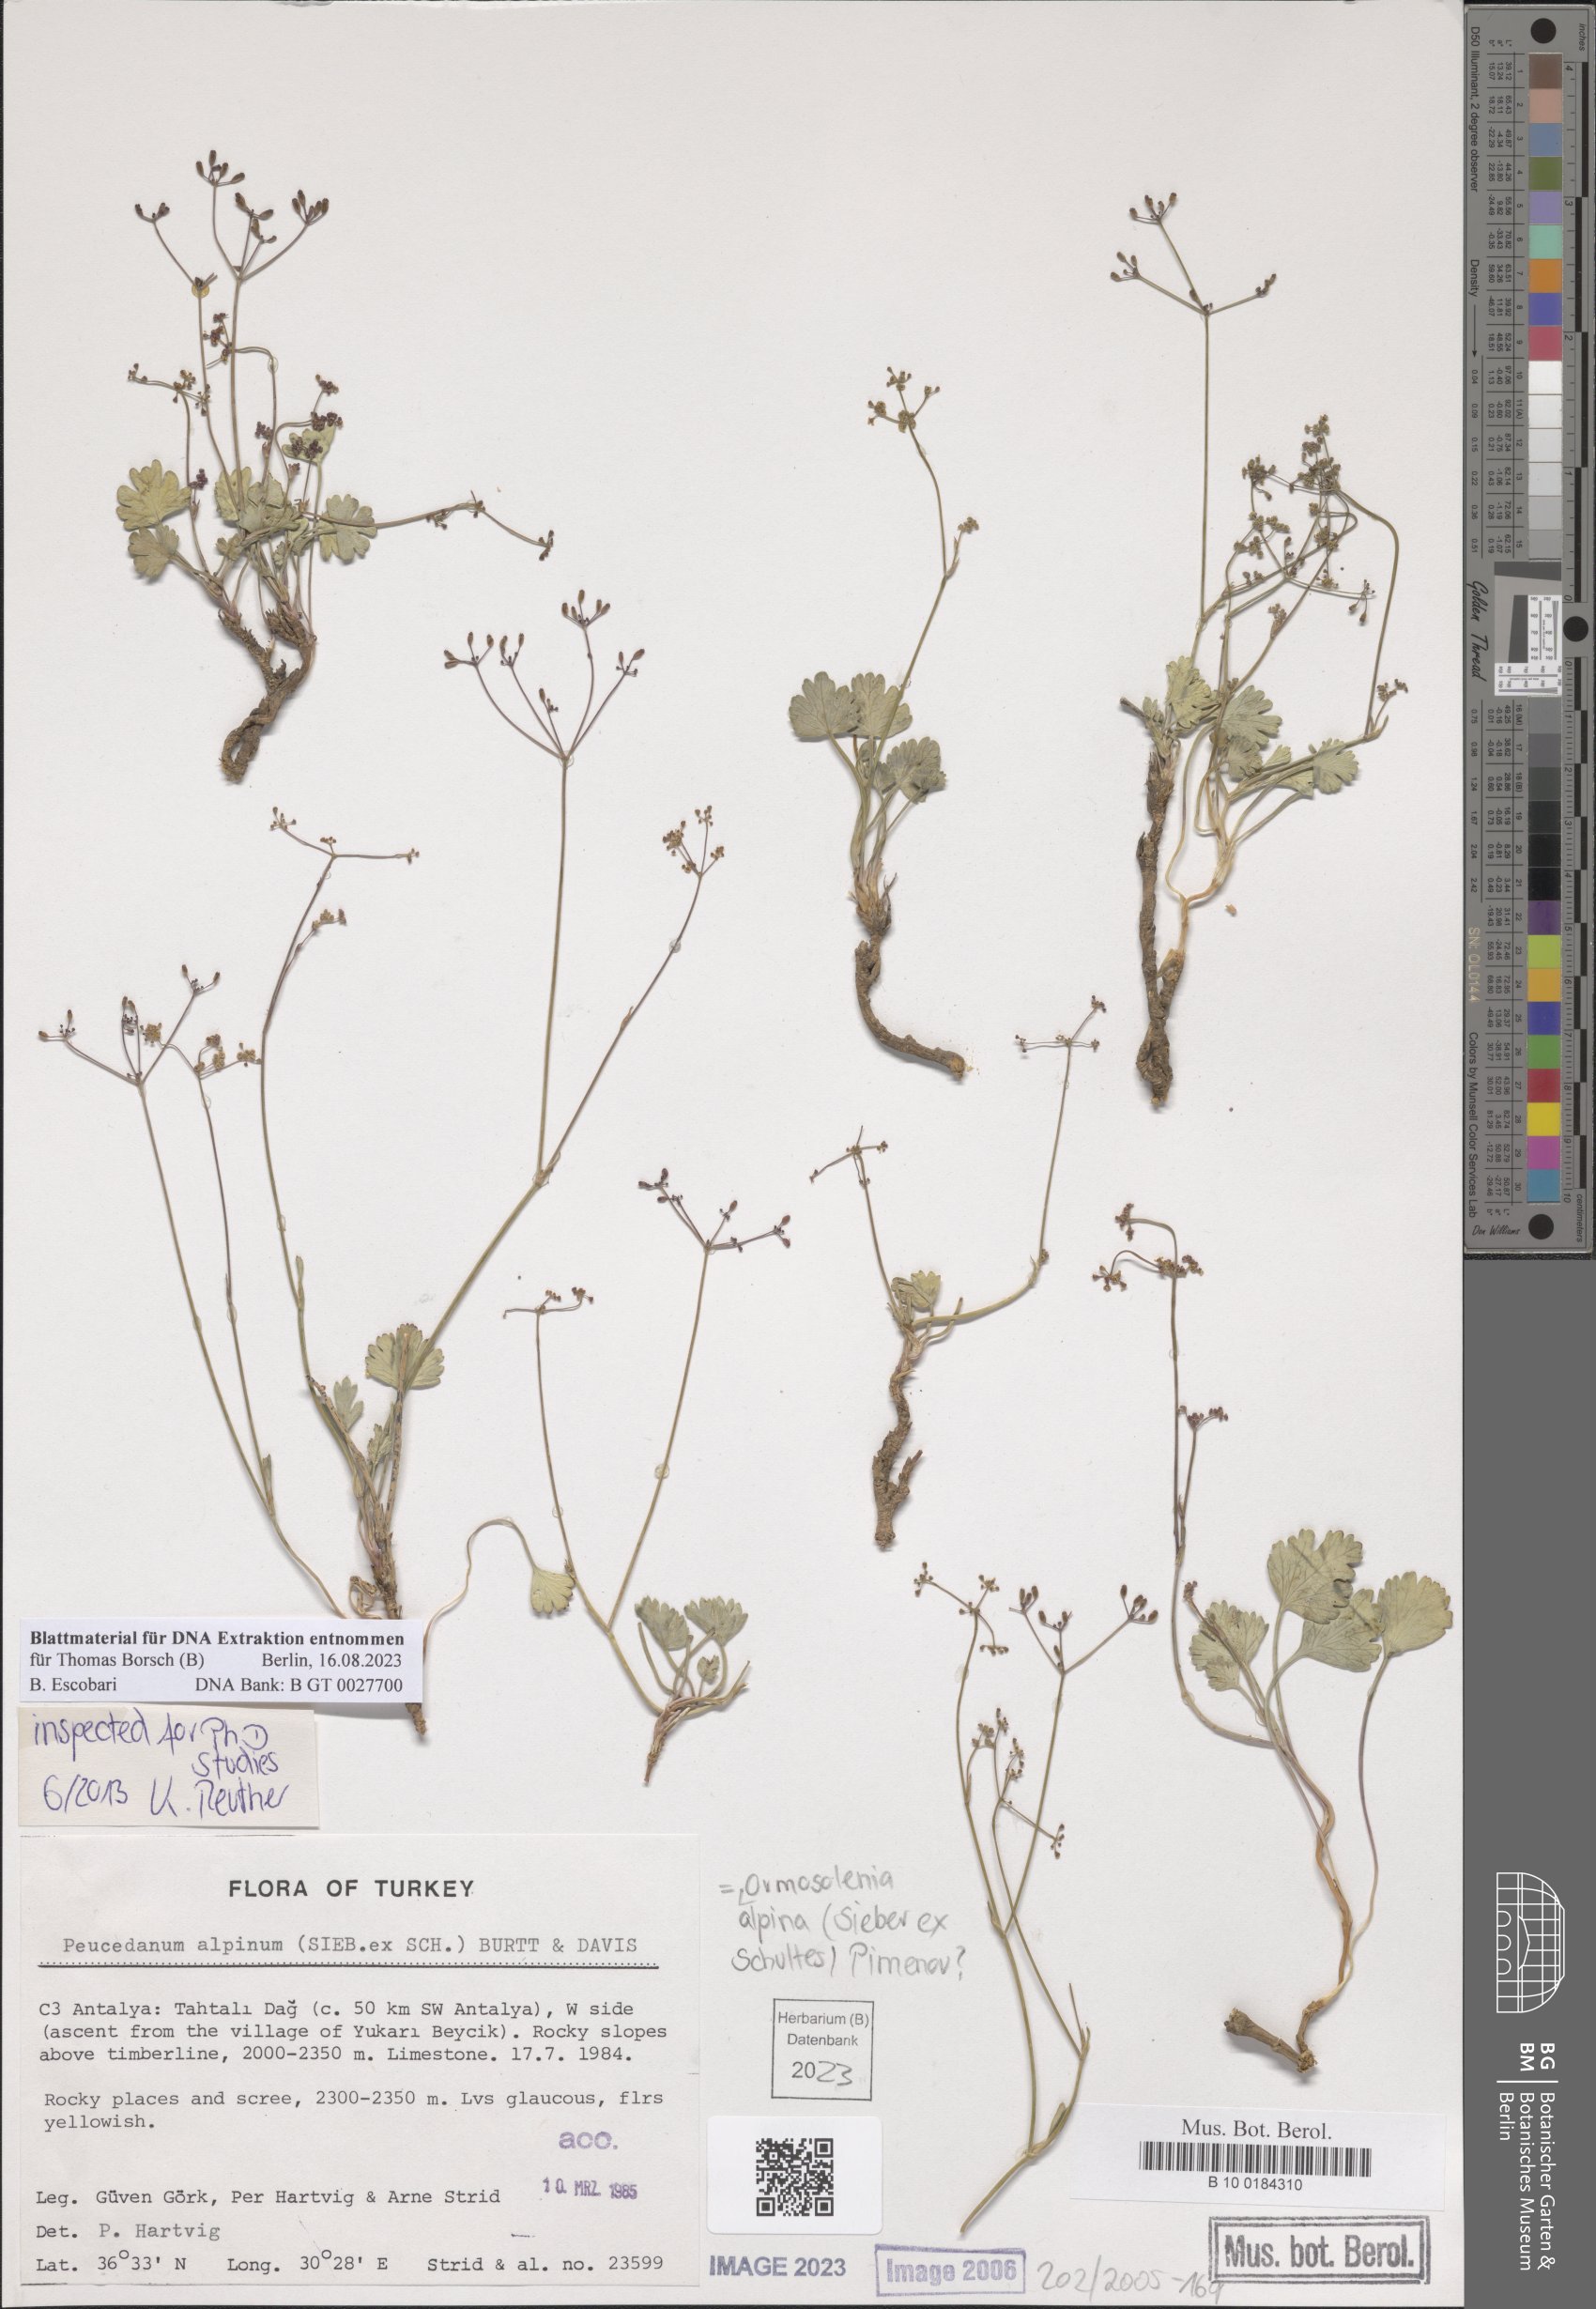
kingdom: Plantae
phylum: Tracheophyta
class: Magnoliopsida
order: Apiales
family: Apiaceae
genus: Ormosolenia
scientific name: Ormosolenia alpina
